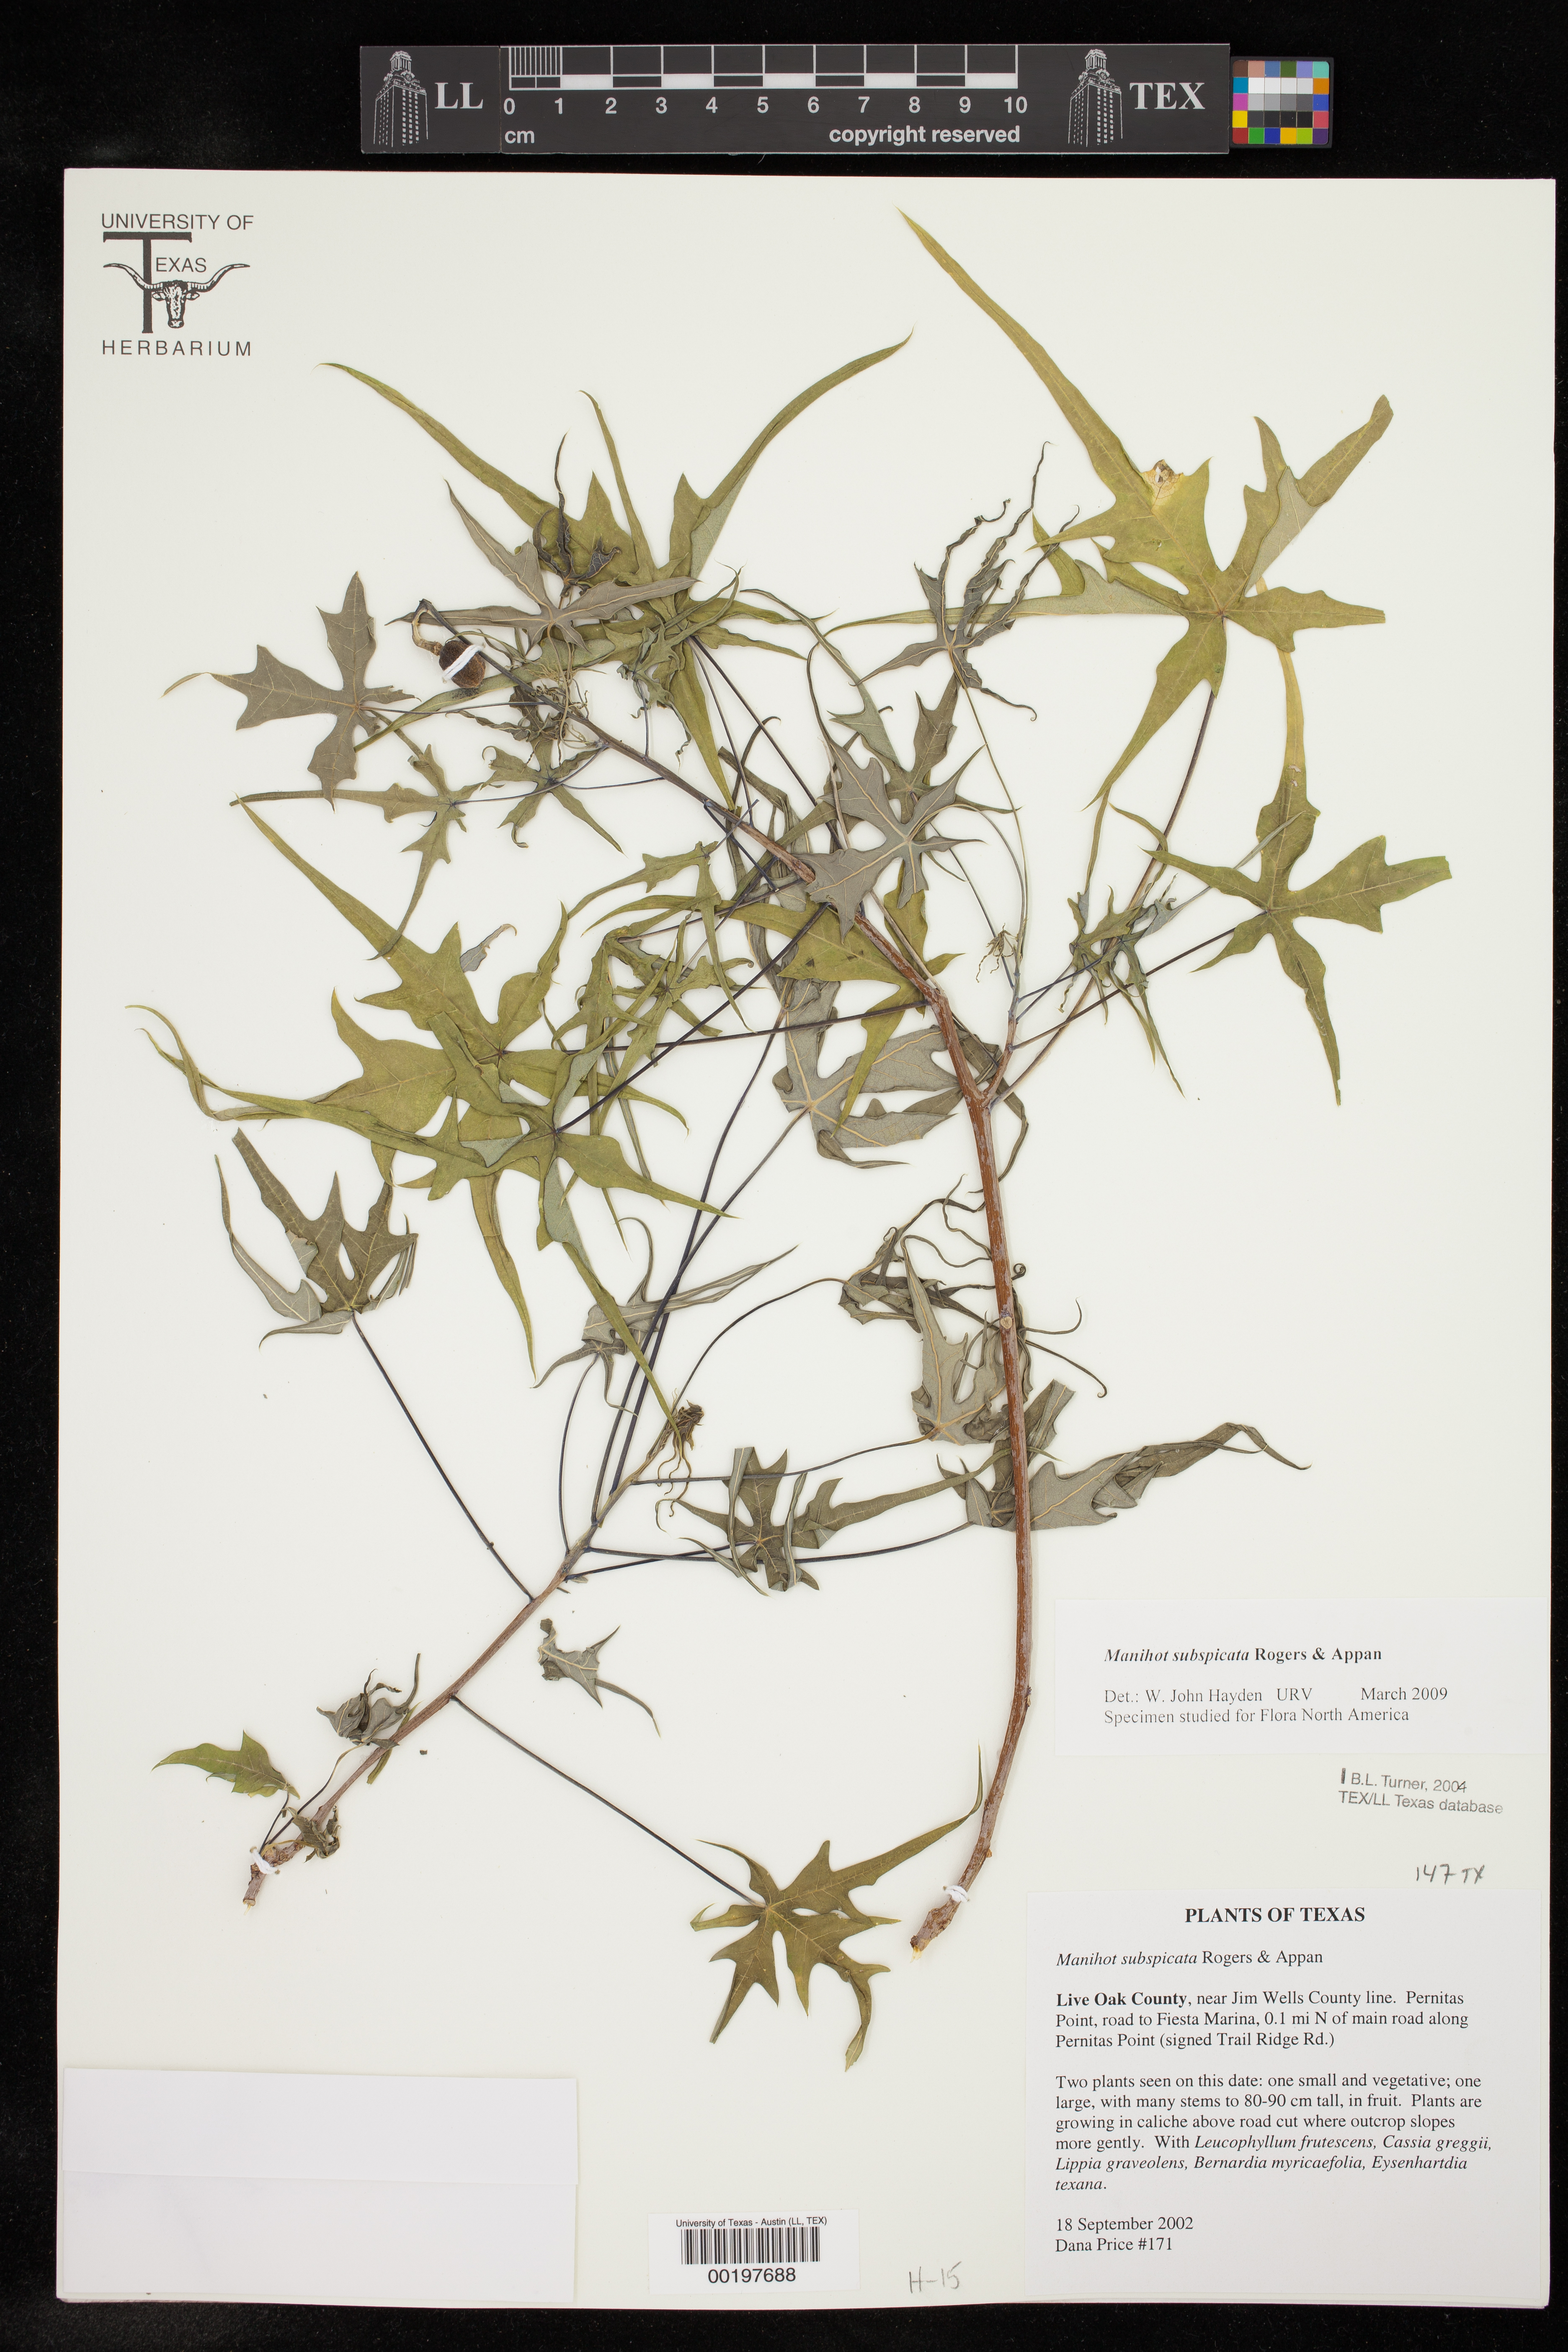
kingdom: Plantae
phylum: Tracheophyta
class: Magnoliopsida
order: Malpighiales
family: Euphorbiaceae
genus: Manihot
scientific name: Manihot subspicata
